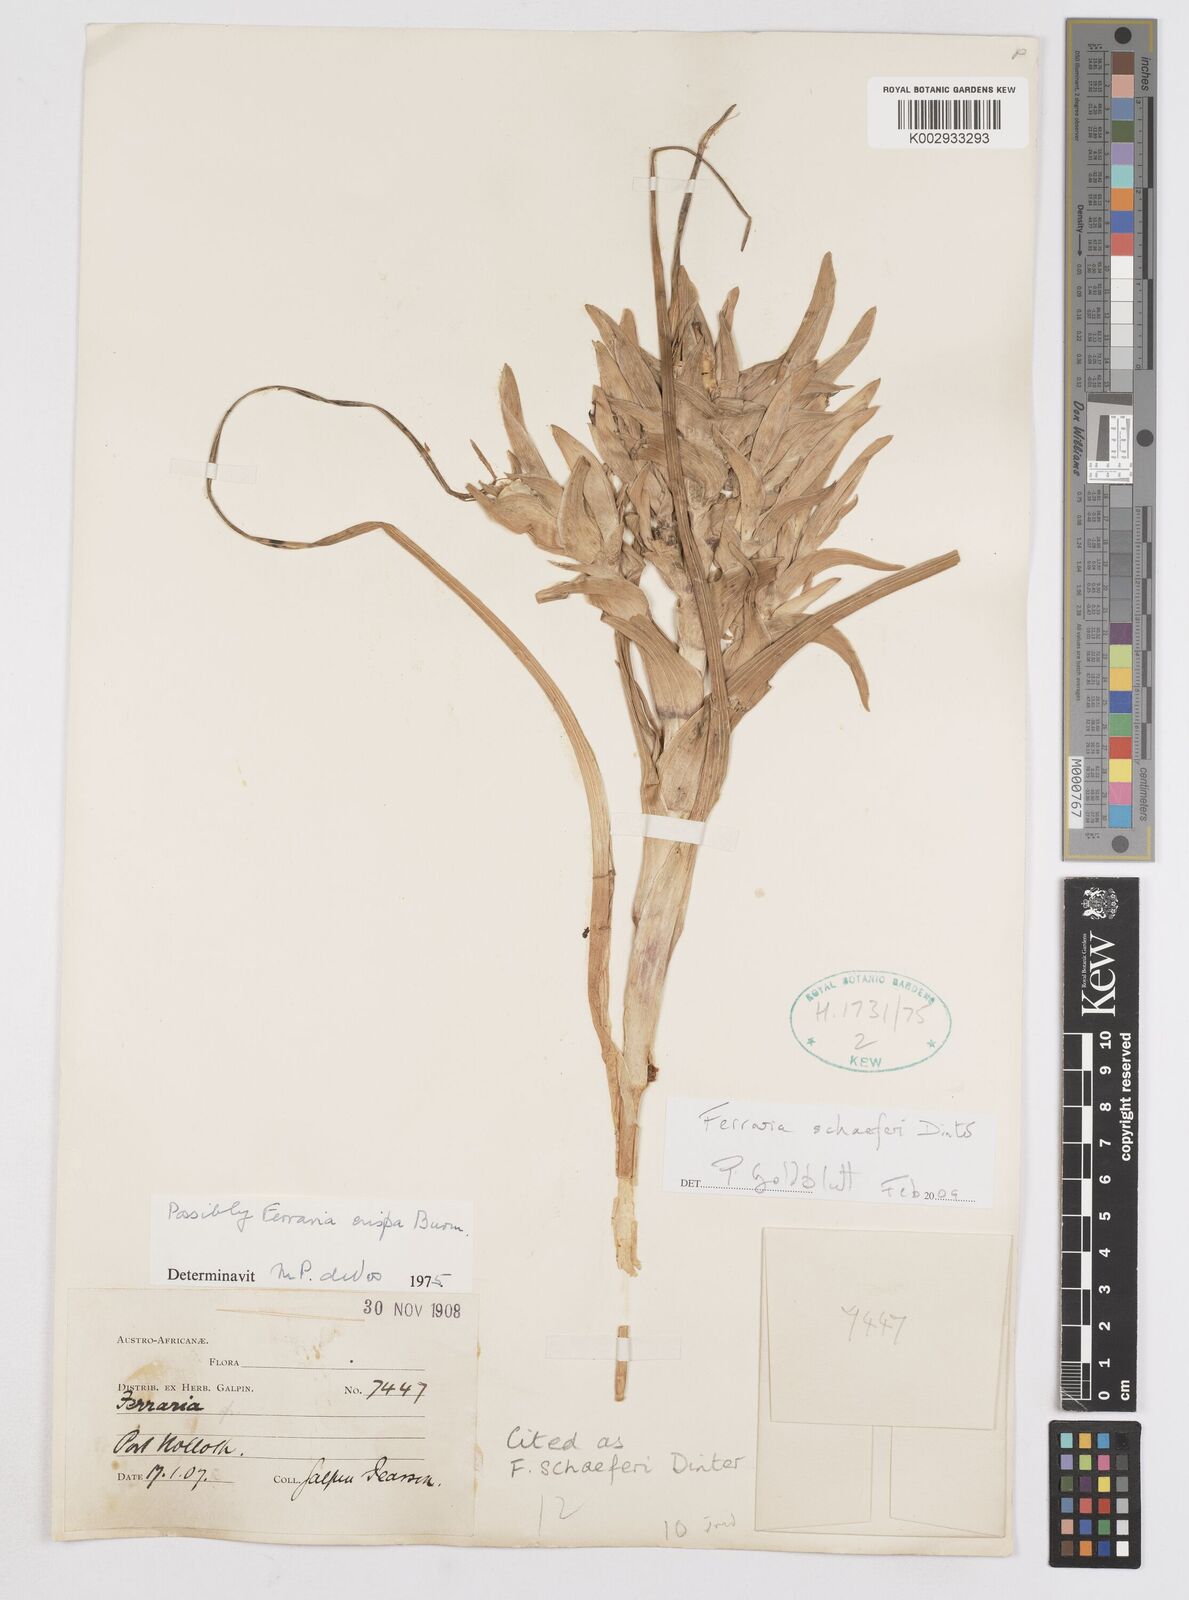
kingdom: Plantae
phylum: Tracheophyta
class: Liliopsida
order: Asparagales
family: Iridaceae
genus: Ferraria
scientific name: Ferraria schaeferi
